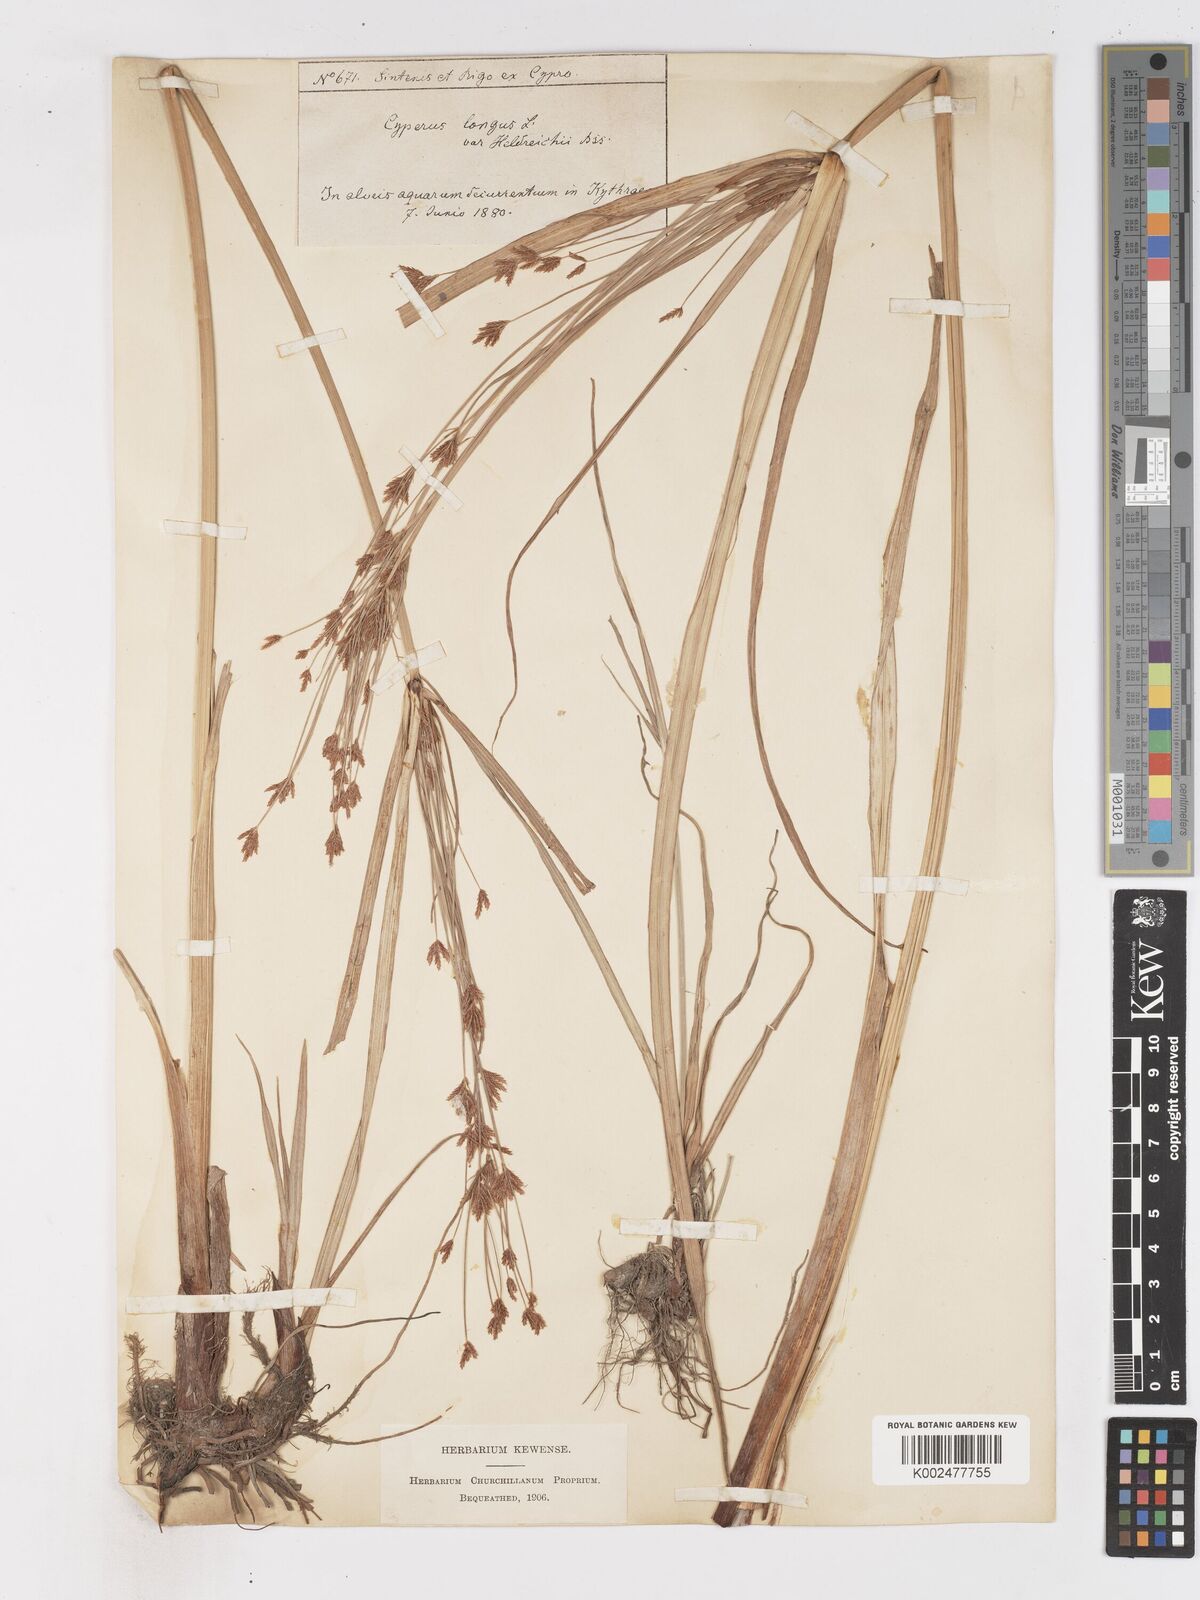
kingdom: Plantae
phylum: Tracheophyta
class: Liliopsida
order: Poales
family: Cyperaceae
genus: Cyperus
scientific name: Cyperus longus
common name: Galingale
